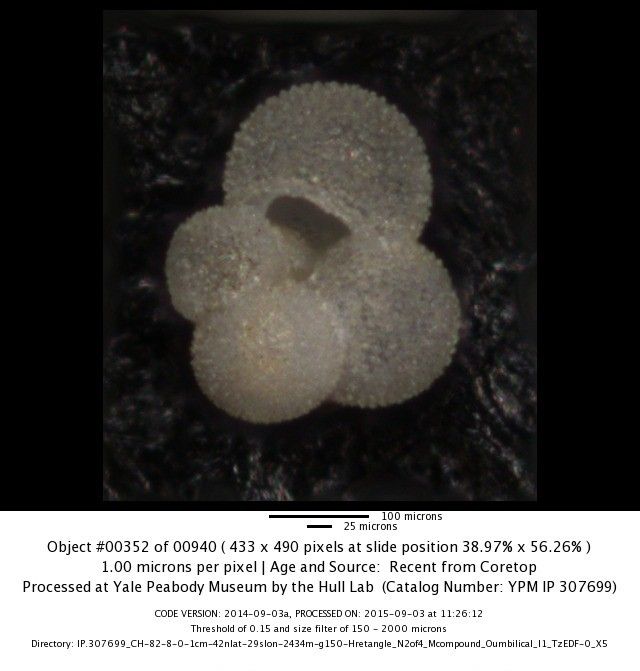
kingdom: Chromista
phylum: Foraminifera
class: Globothalamea
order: Rotaliida
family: Globigerinidae
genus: Globigerina
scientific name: Globigerina bulloides
